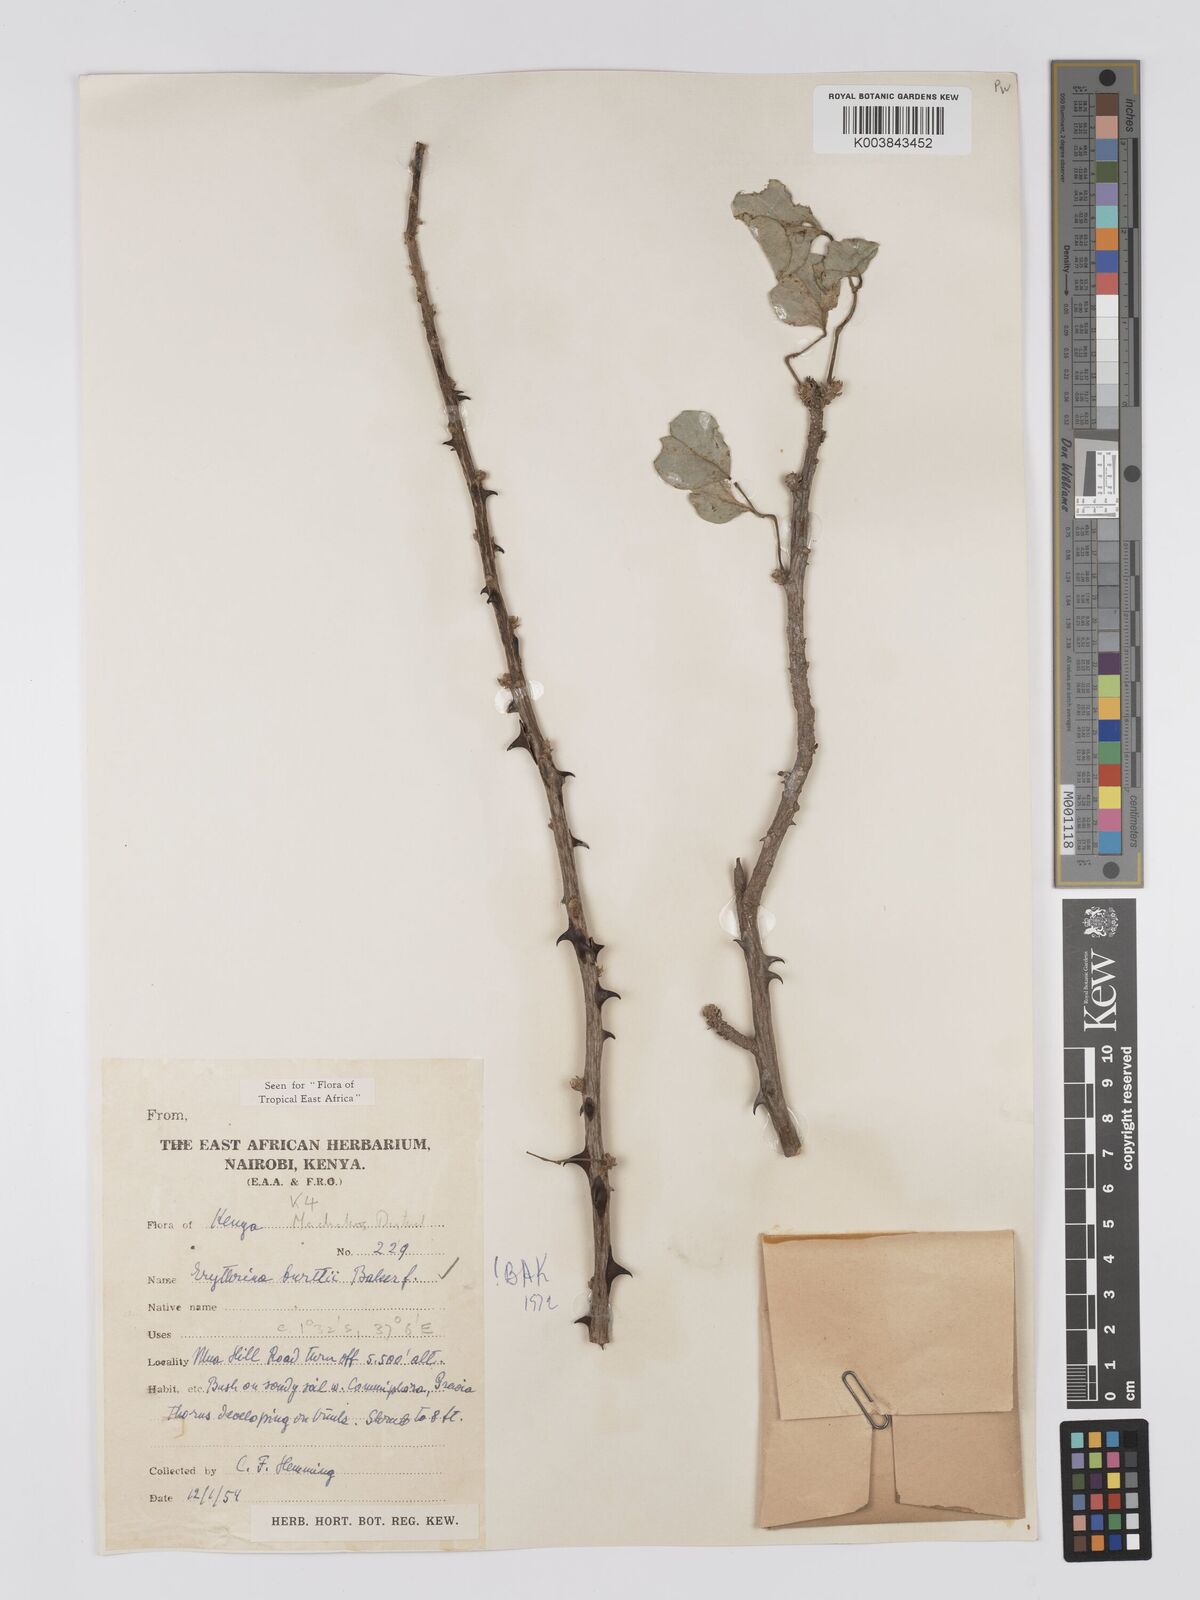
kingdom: Plantae
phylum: Tracheophyta
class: Magnoliopsida
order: Fabales
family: Fabaceae
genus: Erythrina
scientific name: Erythrina burttii
